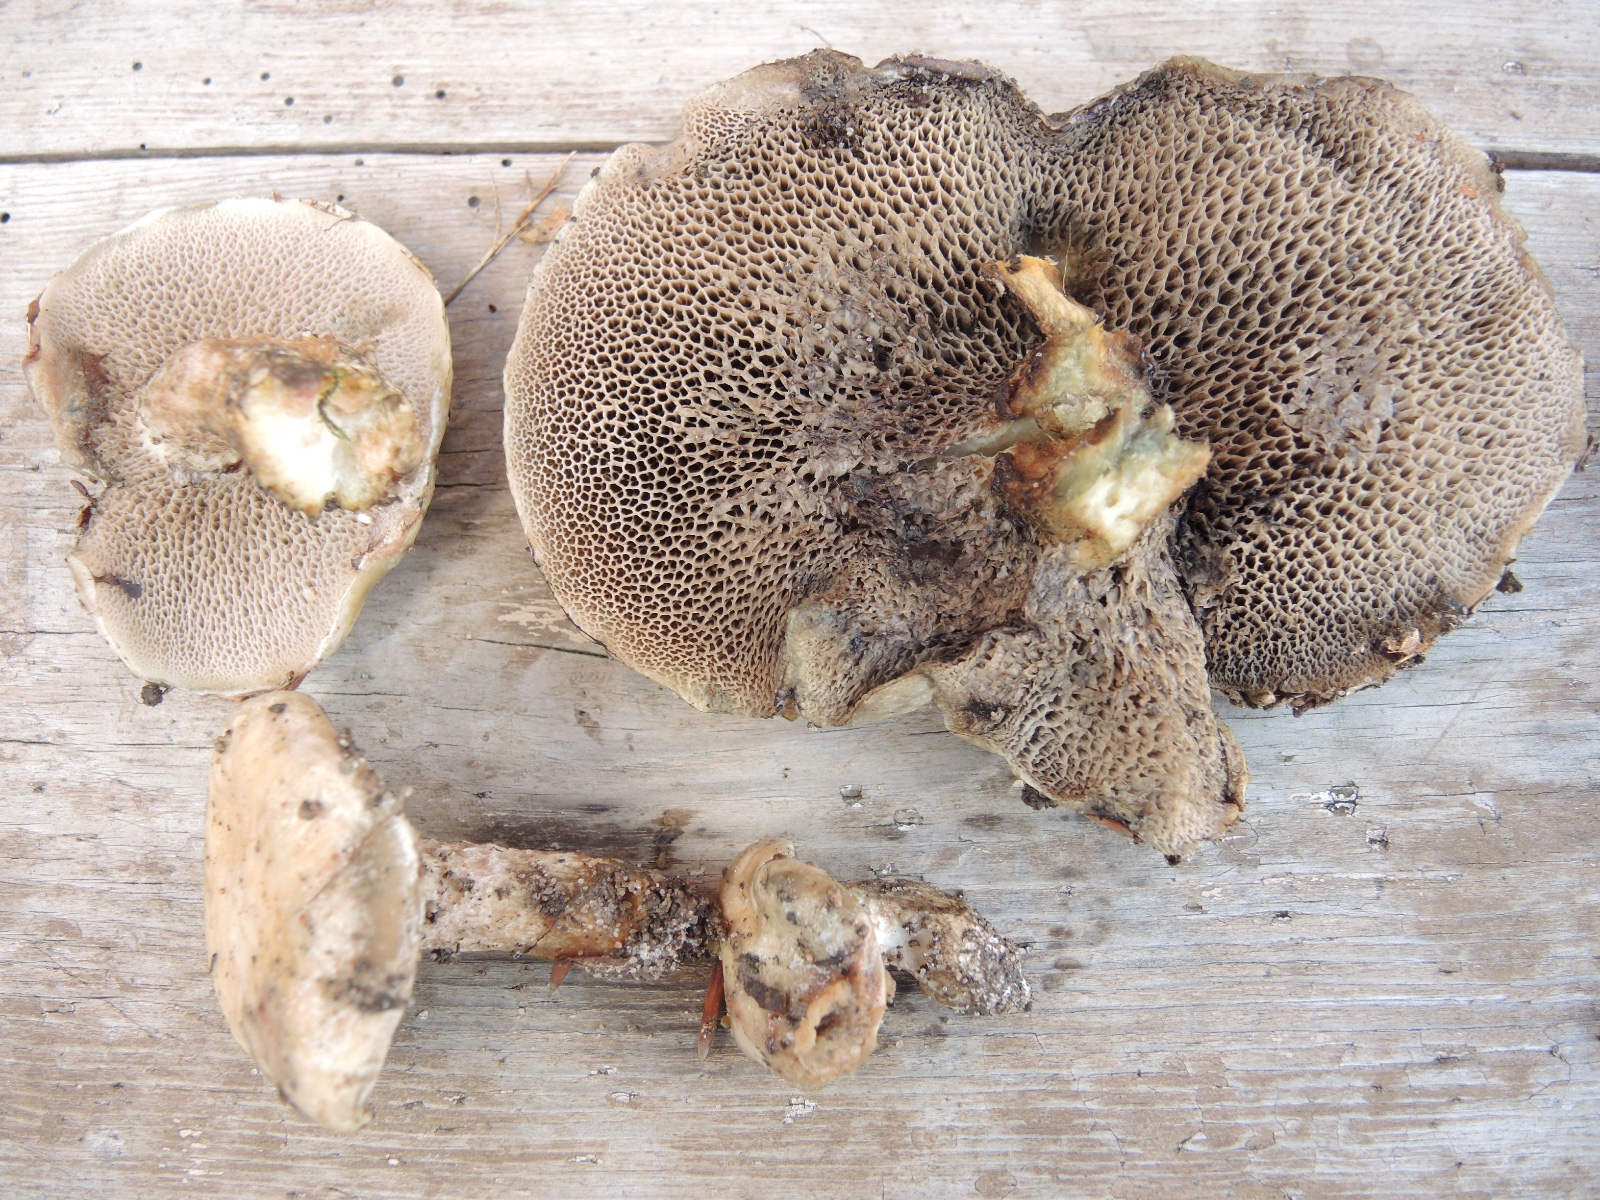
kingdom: Fungi
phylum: Basidiomycota
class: Agaricomycetes
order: Boletales
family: Suillaceae
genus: Suillus
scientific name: Suillus viscidus
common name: olivengrå slimrørhat
